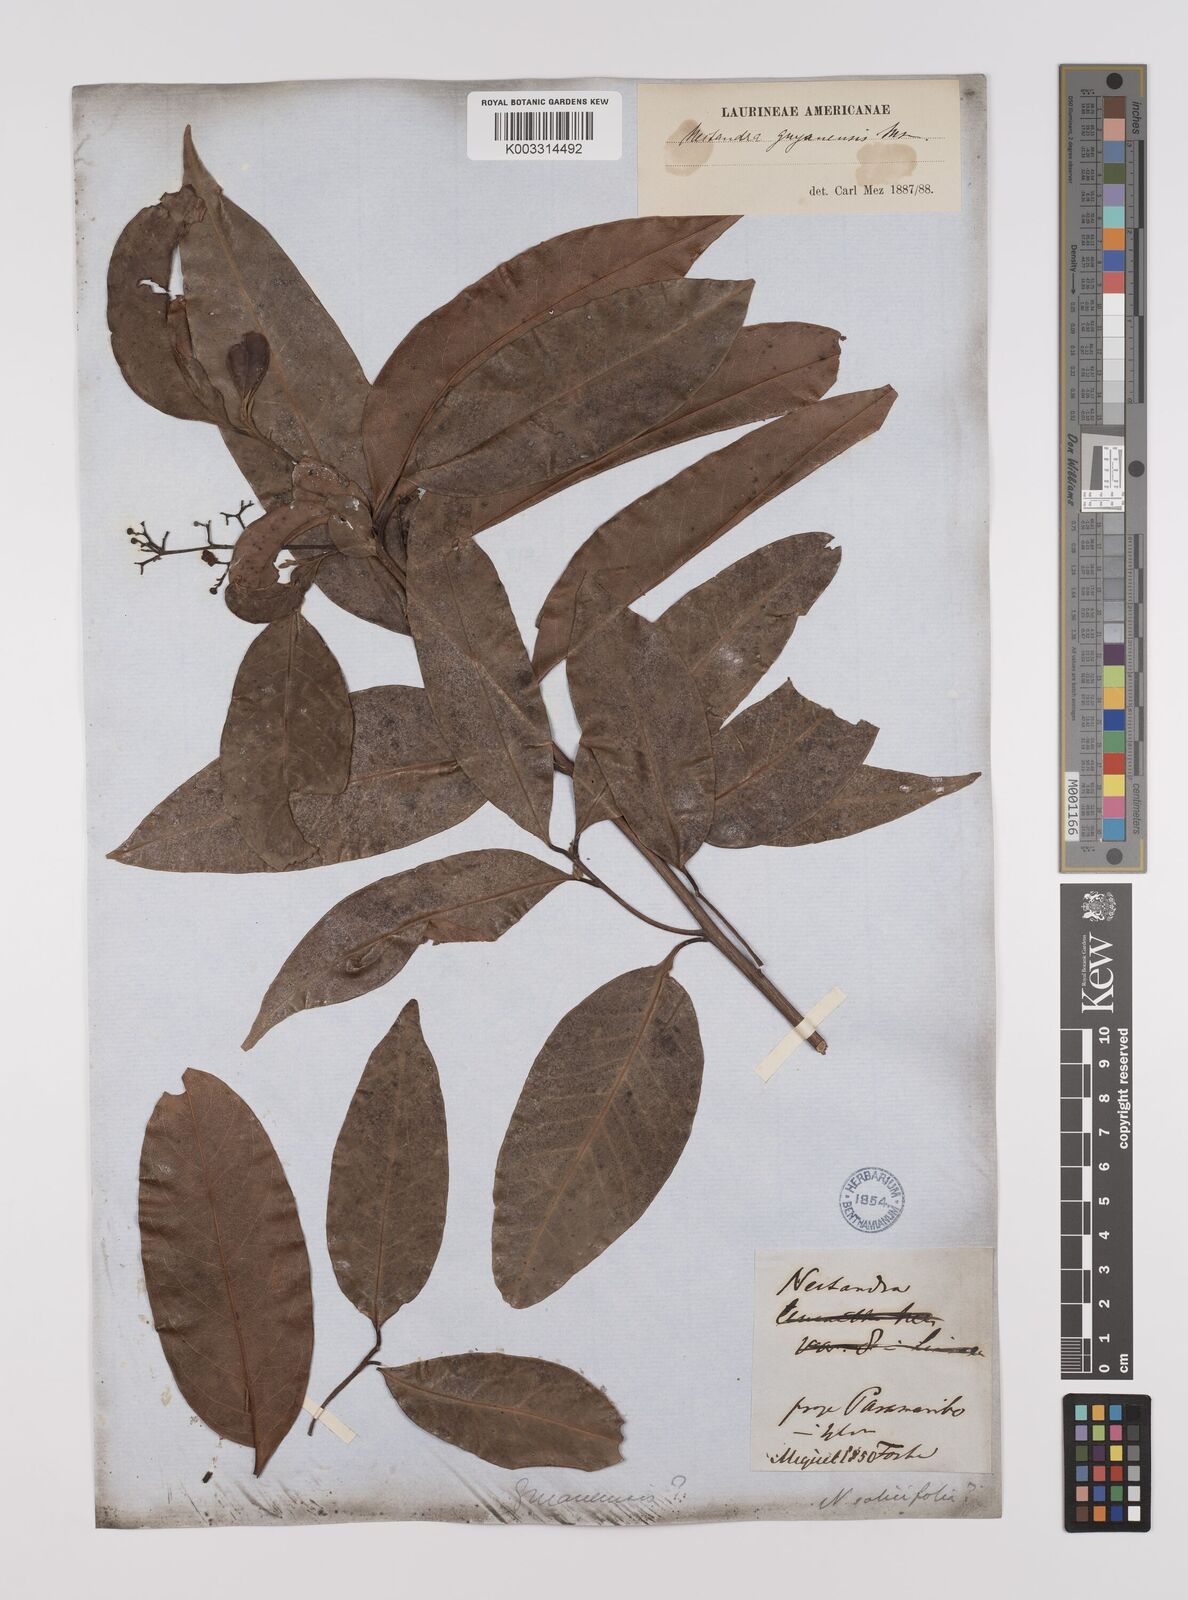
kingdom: Plantae
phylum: Tracheophyta
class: Magnoliopsida
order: Laurales
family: Lauraceae
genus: Nectandra
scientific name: Nectandra sanguinea
